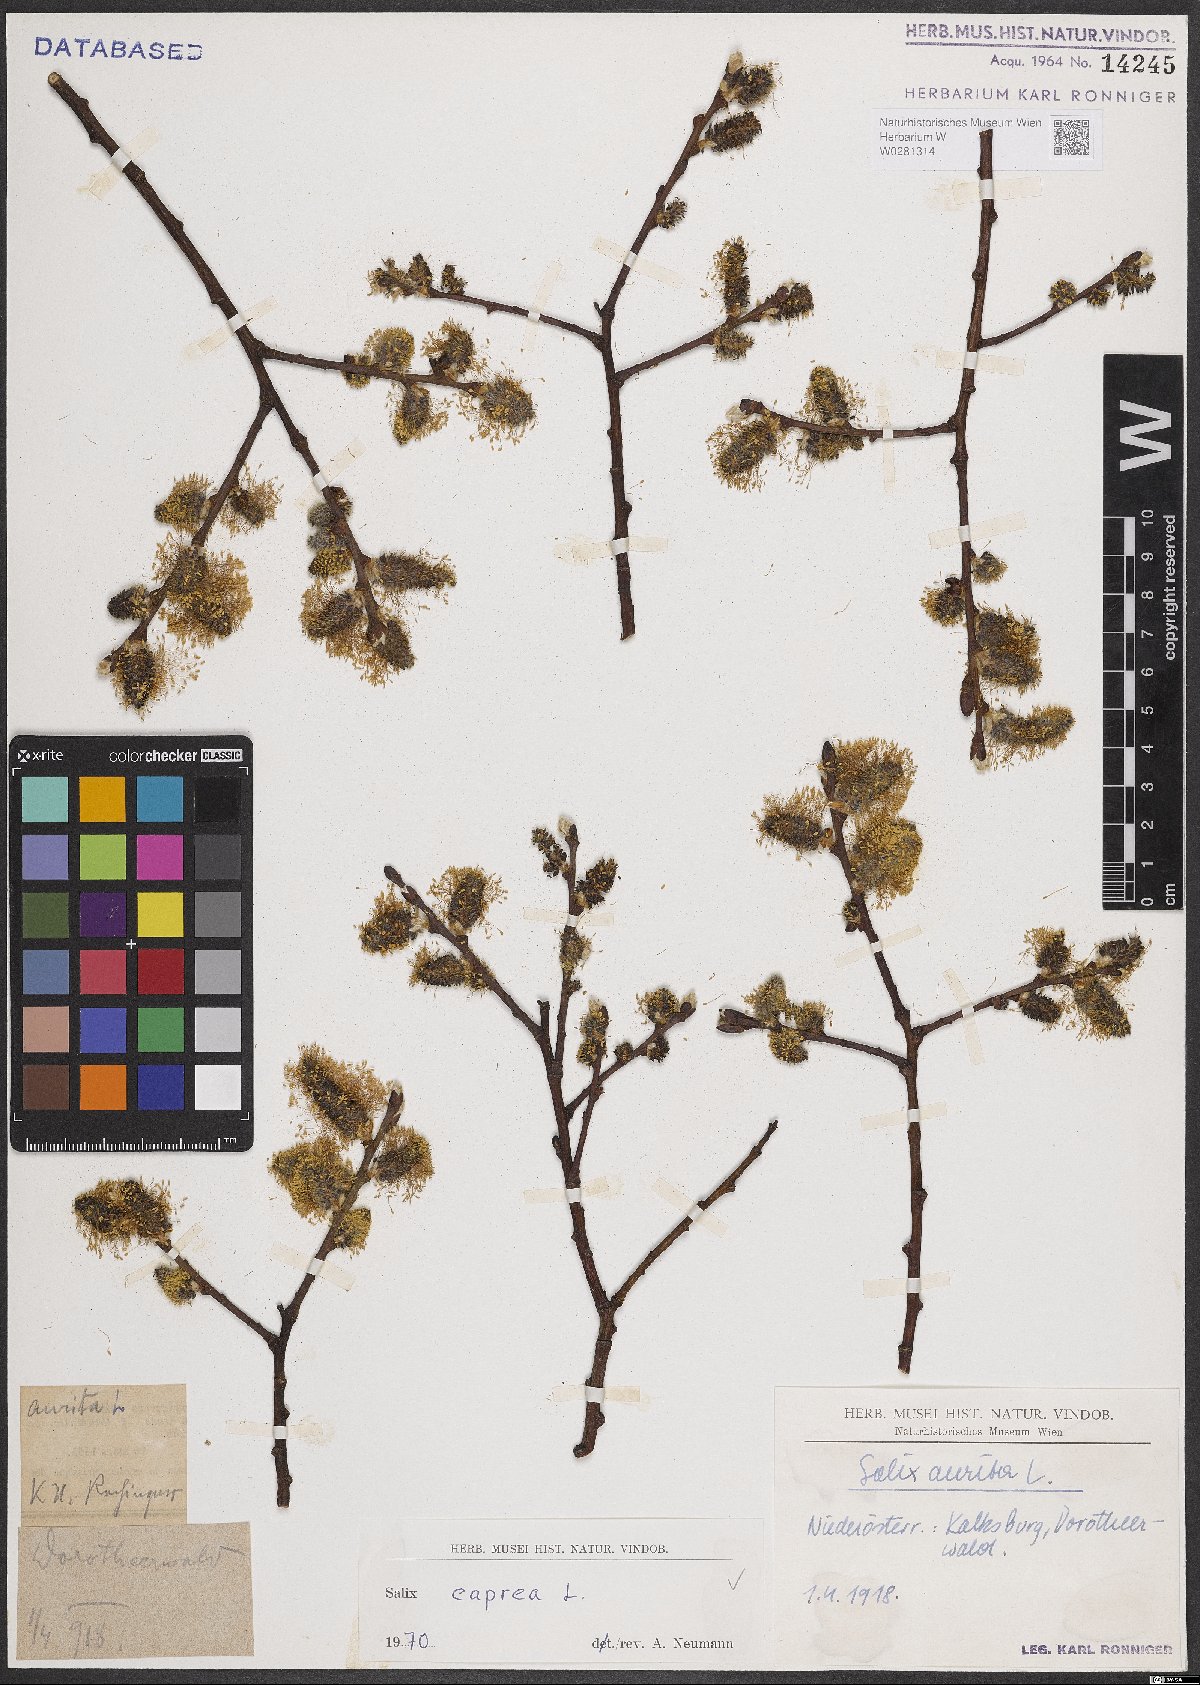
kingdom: Plantae
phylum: Tracheophyta
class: Magnoliopsida
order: Malpighiales
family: Salicaceae
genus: Salix
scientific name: Salix caprea
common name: Goat willow
